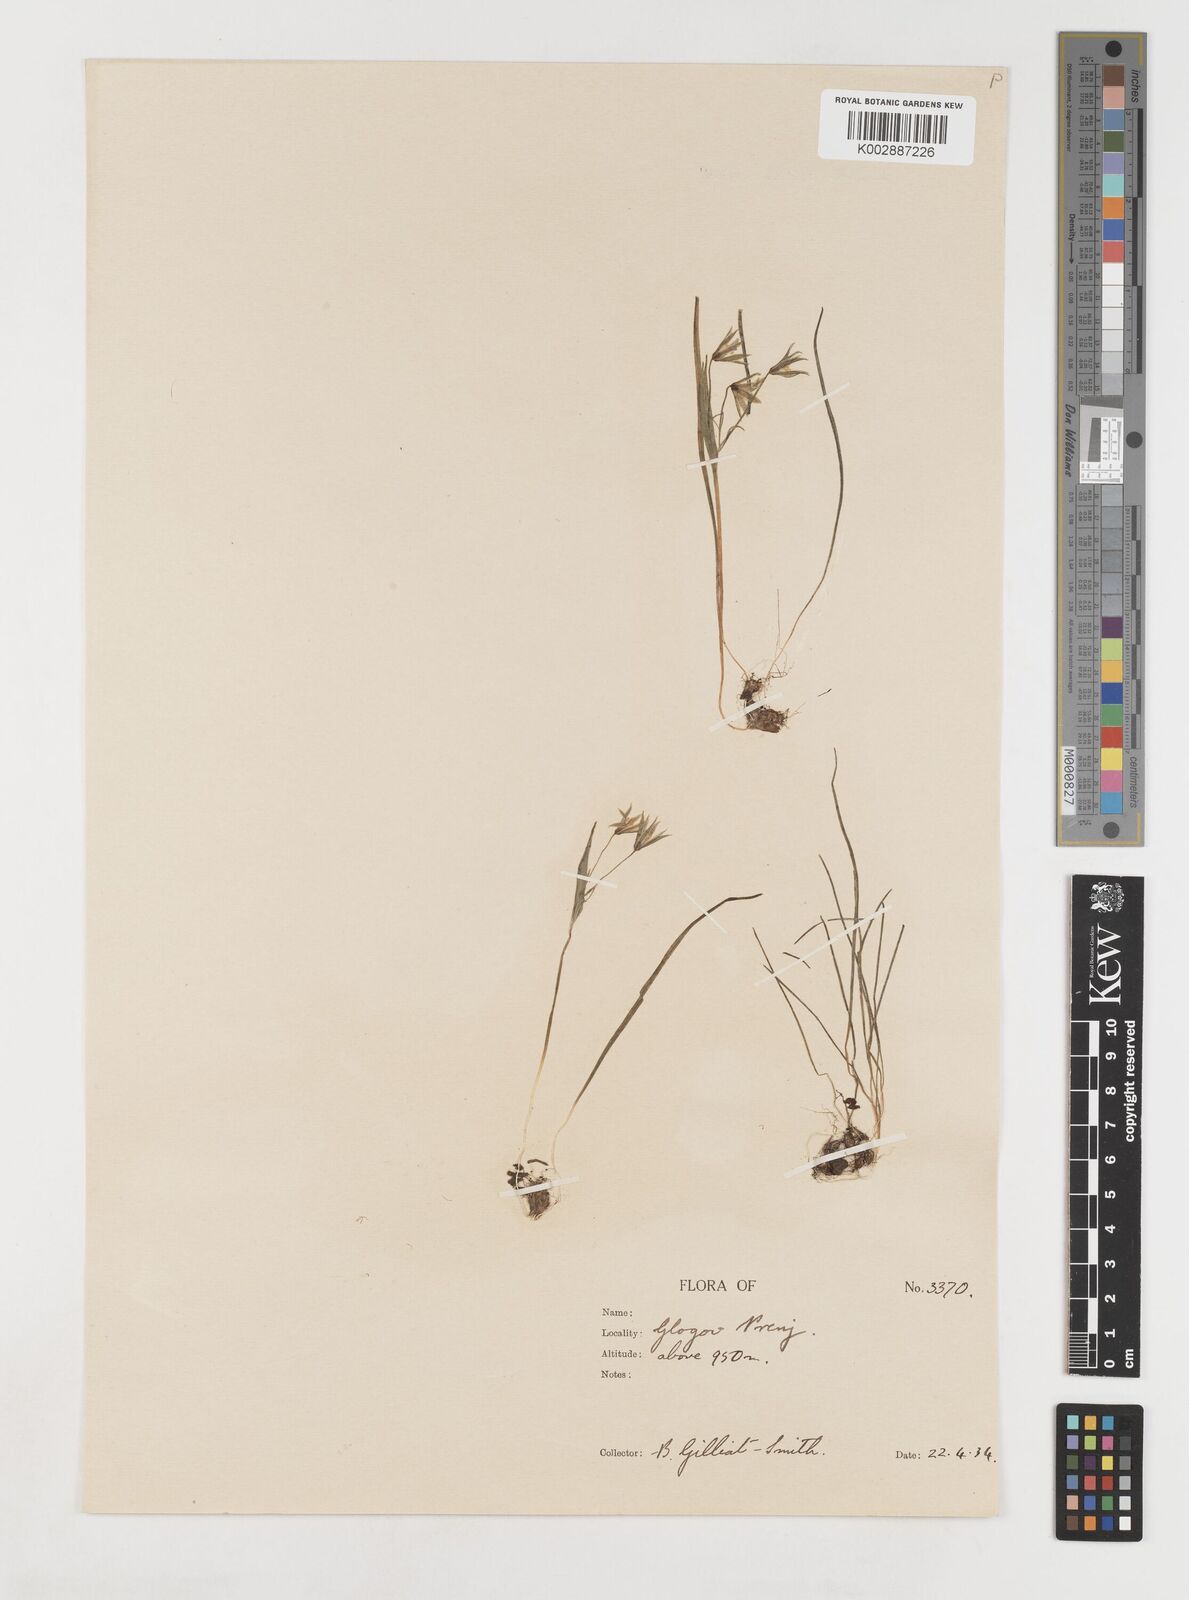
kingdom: Plantae
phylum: Tracheophyta
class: Liliopsida
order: Liliales
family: Liliaceae
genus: Gagea
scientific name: Gagea minima
